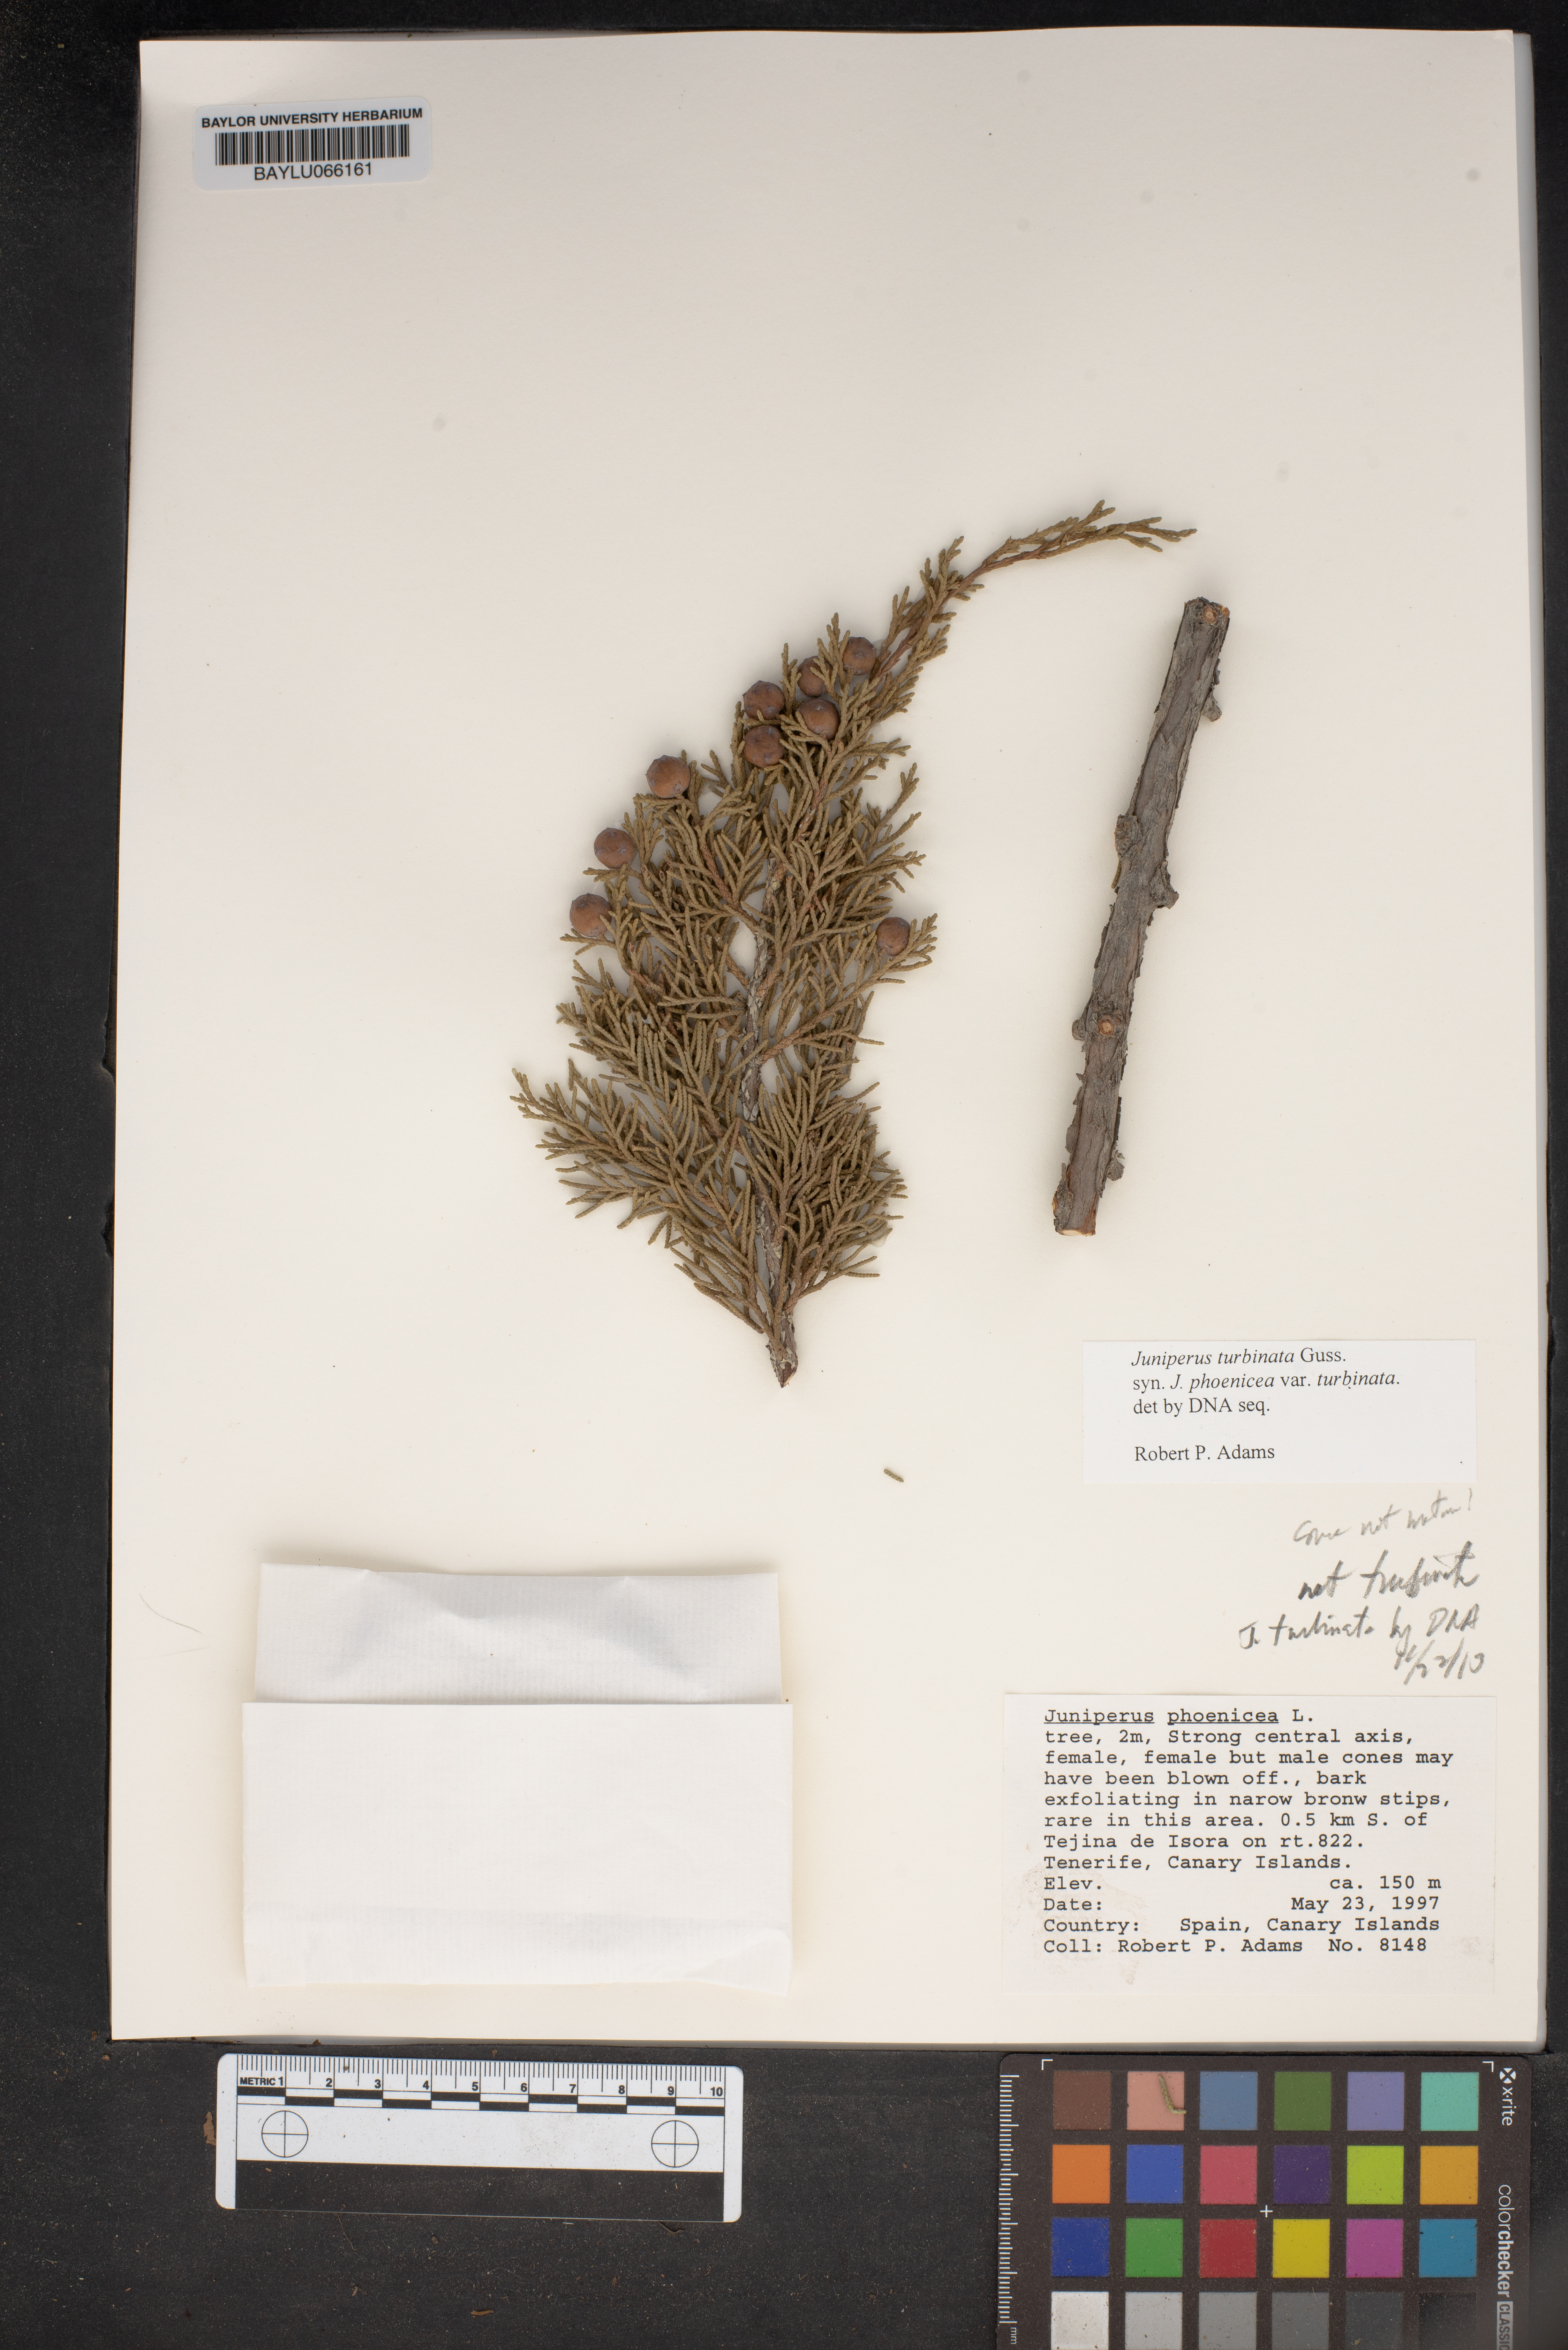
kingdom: Plantae
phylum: Tracheophyta
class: Pinopsida
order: Pinales
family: Cupressaceae
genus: Juniperus
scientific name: Juniperus phoenicea
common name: Phoenician juniper
